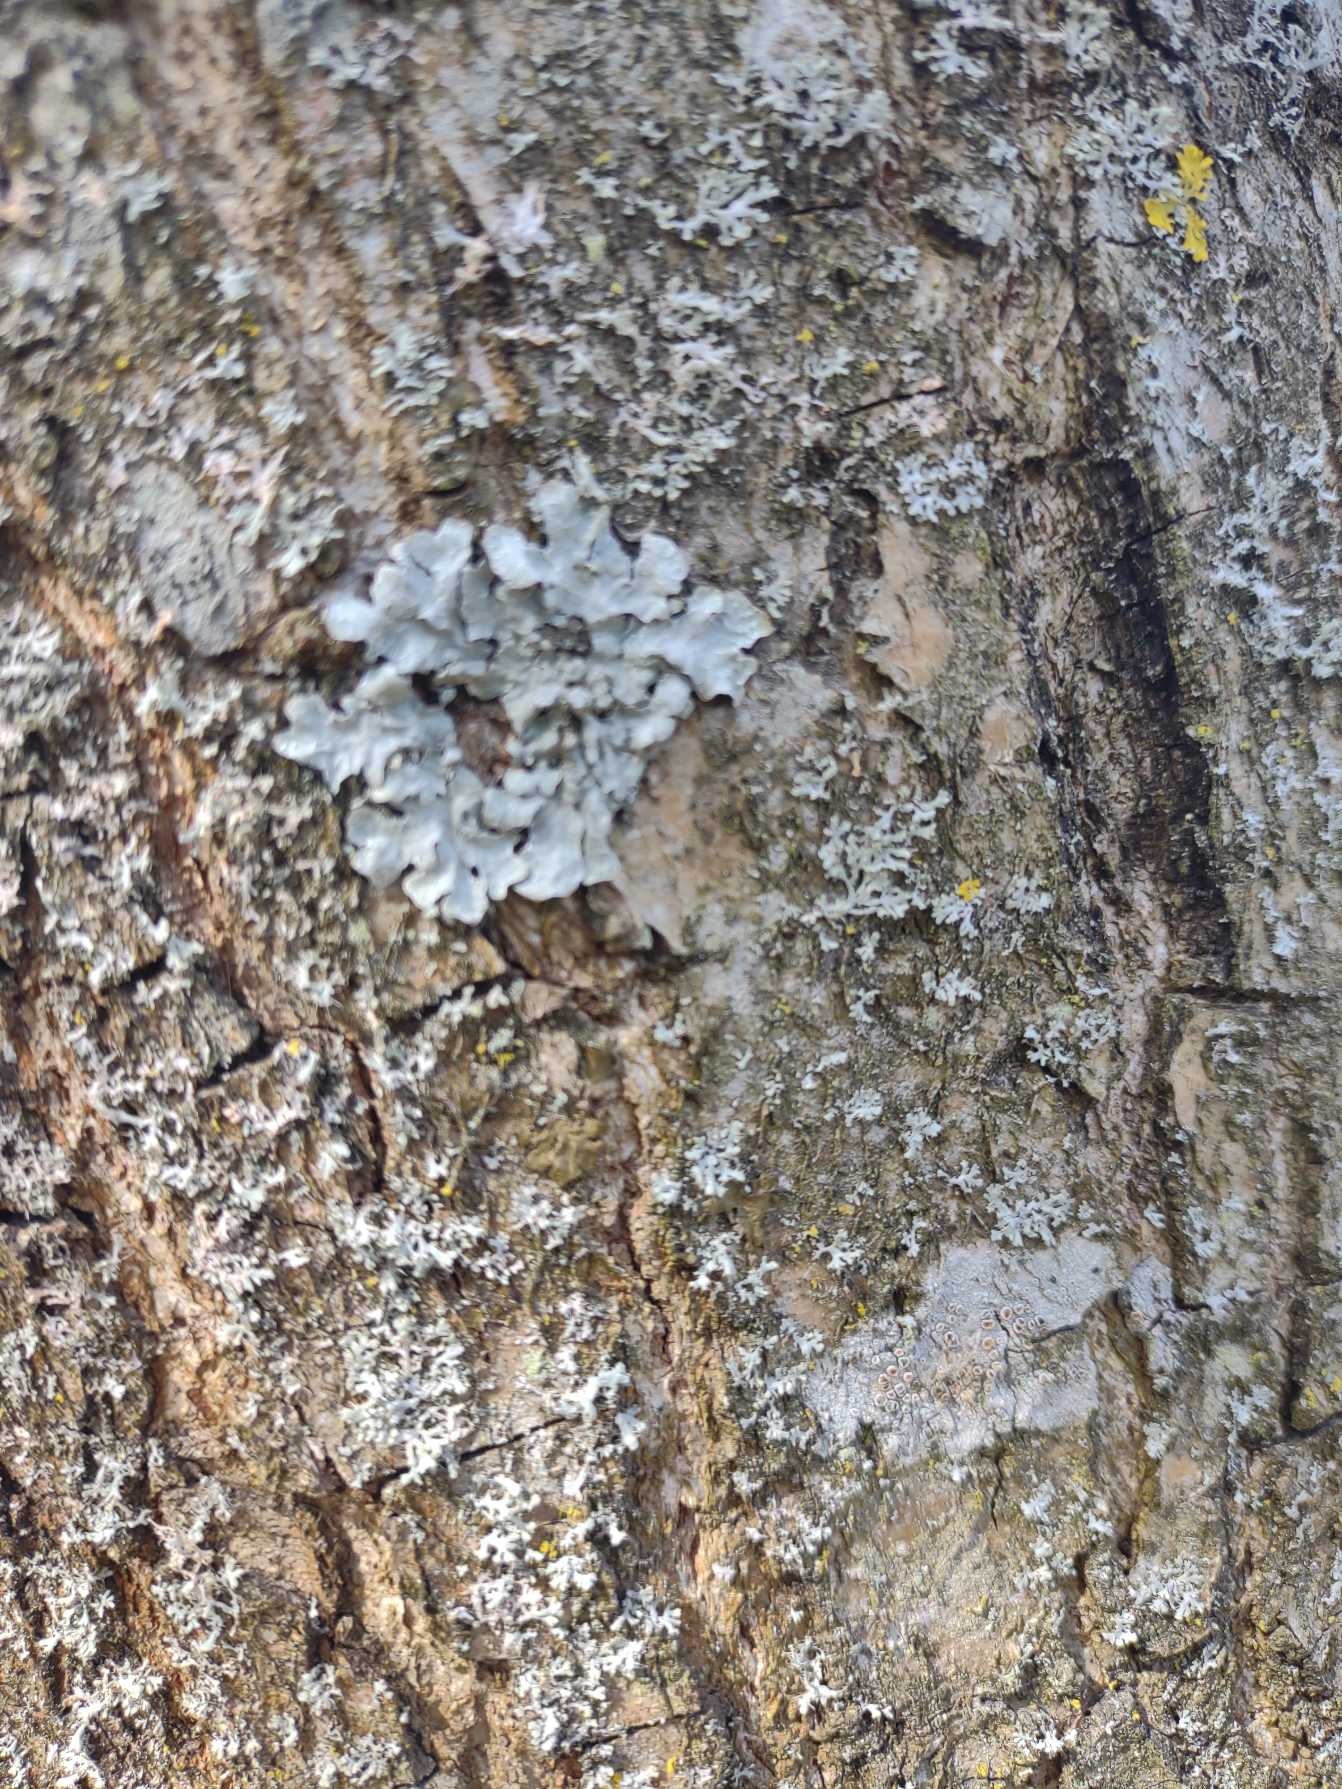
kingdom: Fungi
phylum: Ascomycota
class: Lecanoromycetes
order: Lecanorales
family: Parmeliaceae
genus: Parmelia
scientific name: Parmelia sulcata
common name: Rynket skållav
